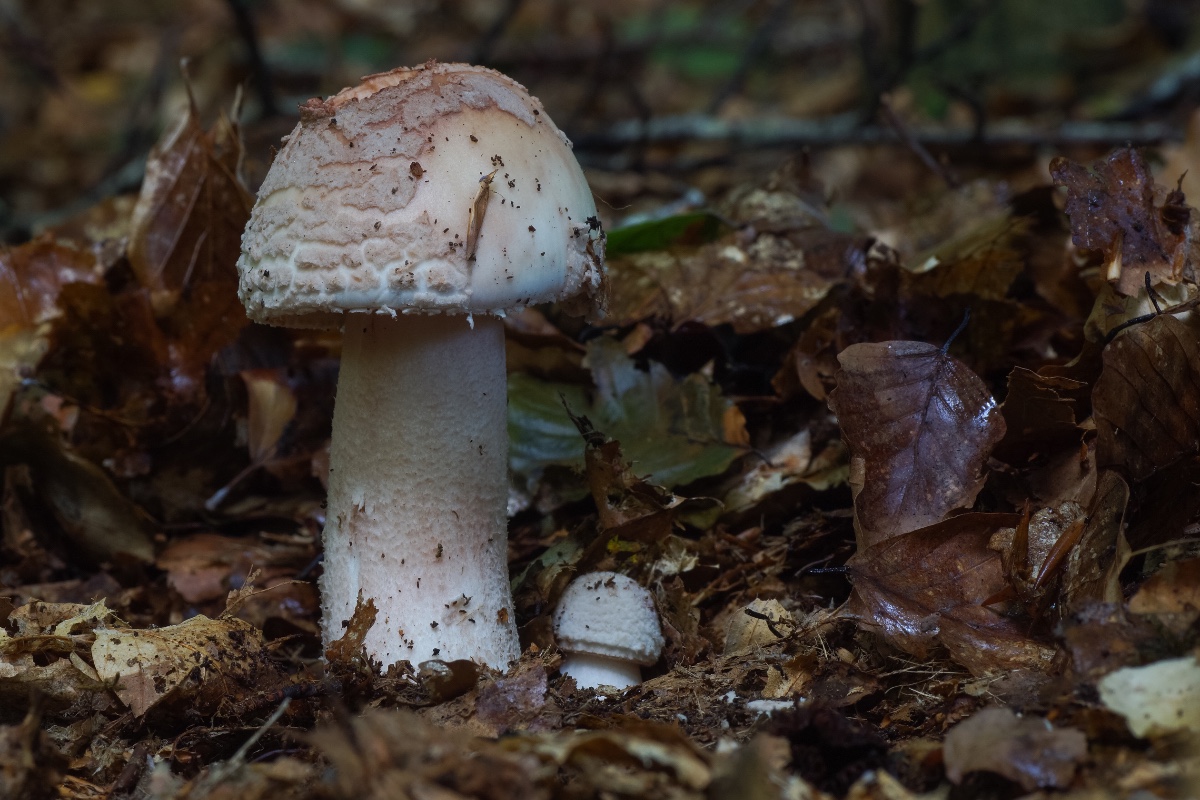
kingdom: Fungi
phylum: Basidiomycota
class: Agaricomycetes
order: Agaricales
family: Amanitaceae
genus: Amanita
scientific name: Amanita rubescens
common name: rødmende fluesvamp
